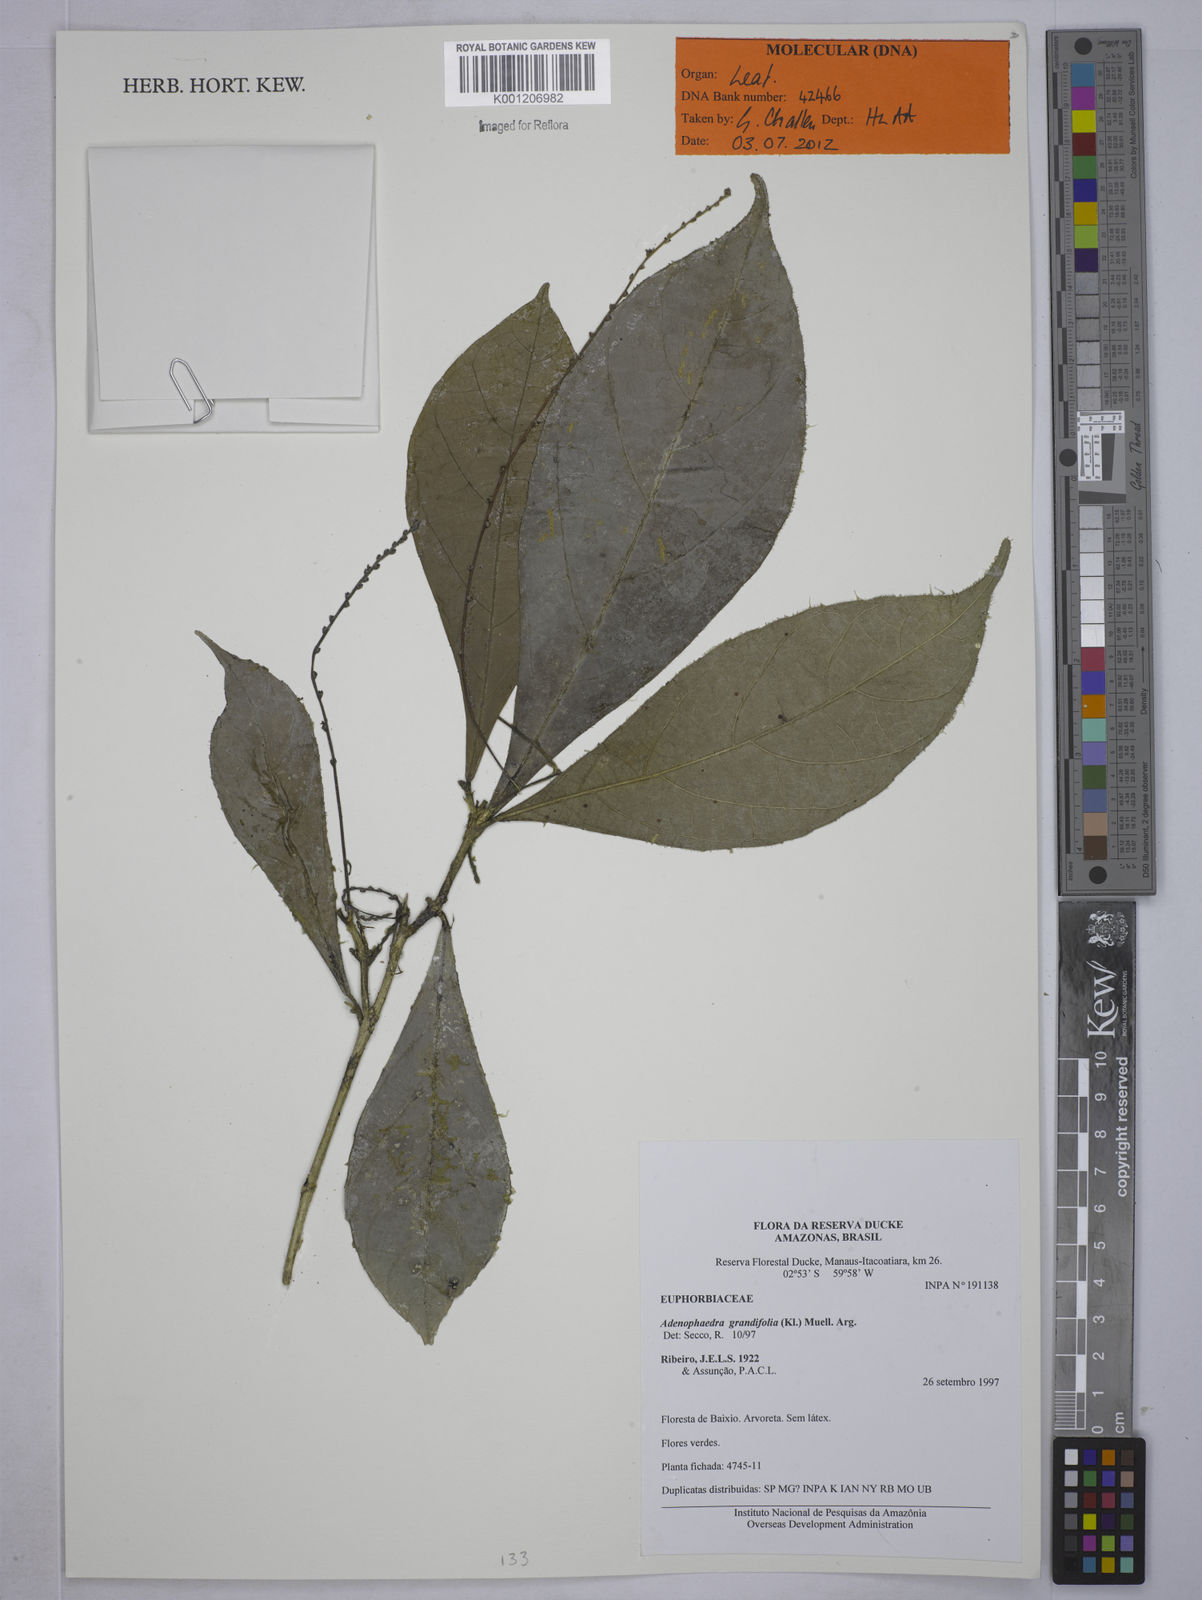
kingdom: Plantae
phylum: Tracheophyta
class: Magnoliopsida
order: Malpighiales
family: Euphorbiaceae
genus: Adenophaedra
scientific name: Adenophaedra
